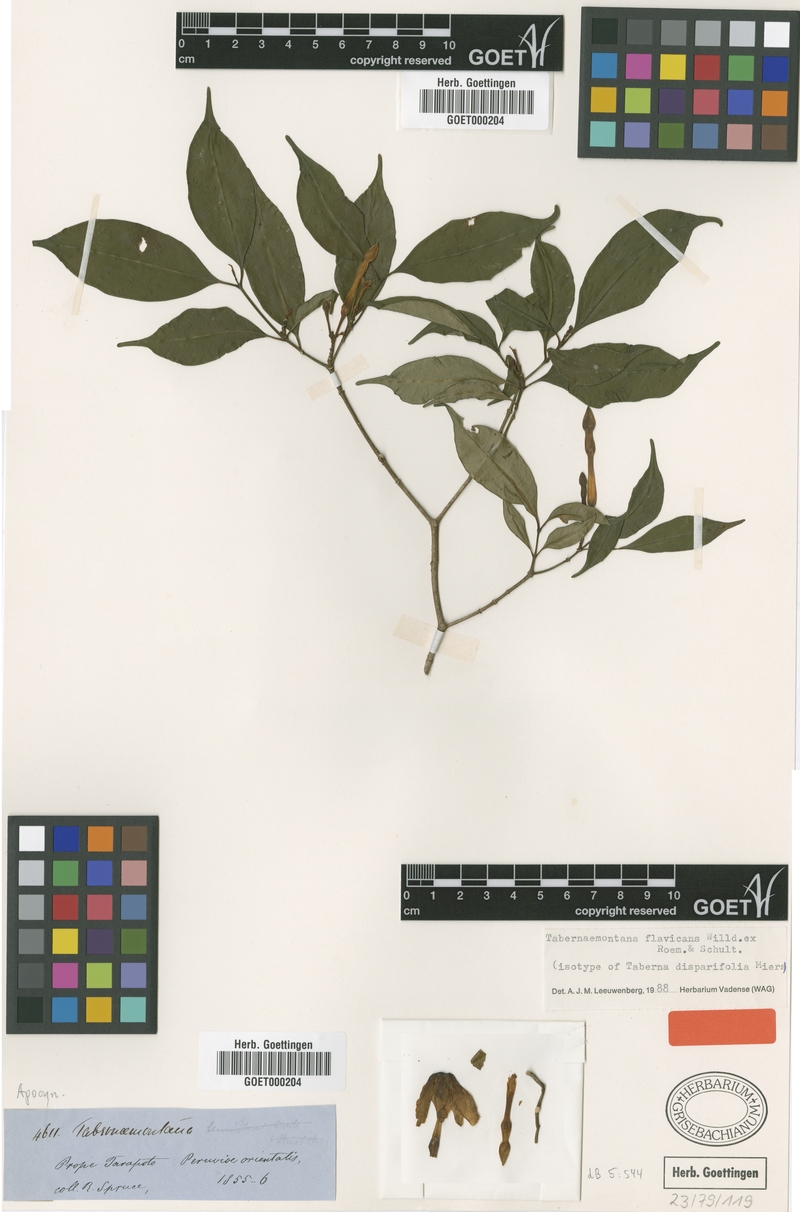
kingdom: Plantae
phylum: Tracheophyta
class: Magnoliopsida
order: Gentianales
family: Apocynaceae
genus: Tabernaemontana
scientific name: Tabernaemontana flavicans
